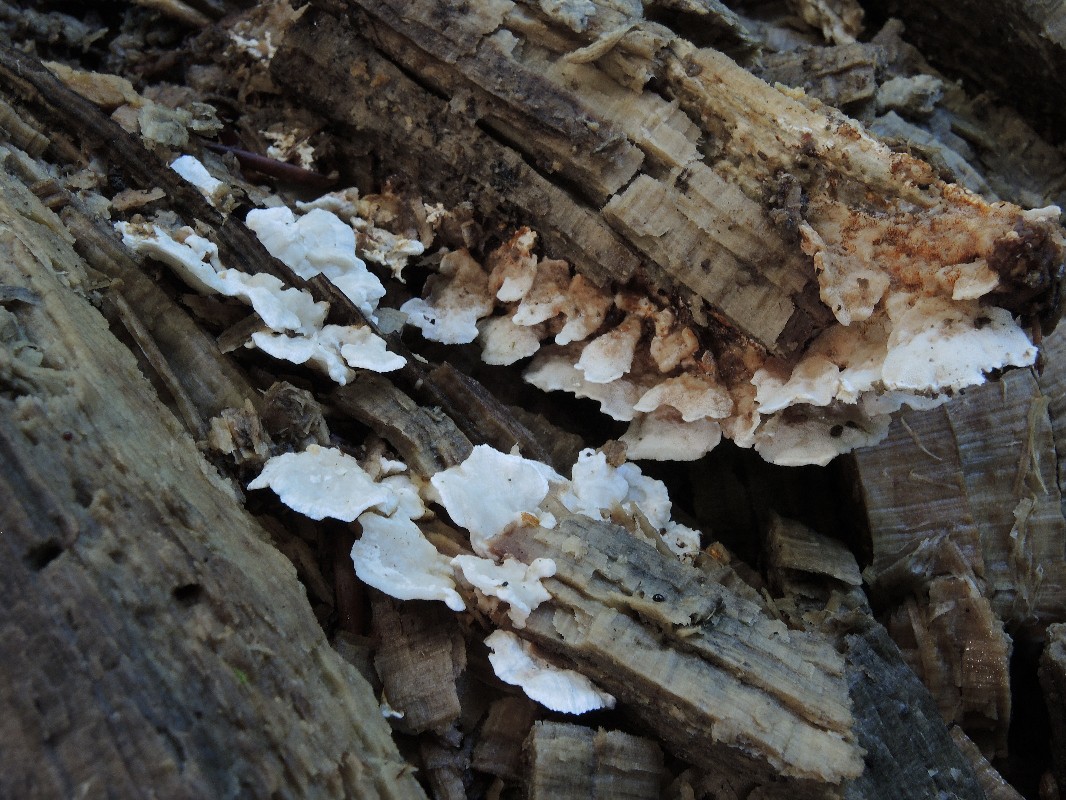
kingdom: Fungi
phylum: Basidiomycota
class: Agaricomycetes
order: Polyporales
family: Steccherinaceae
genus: Antrodiella
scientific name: Antrodiella pallescens
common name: tønder-elastikporesvamp
